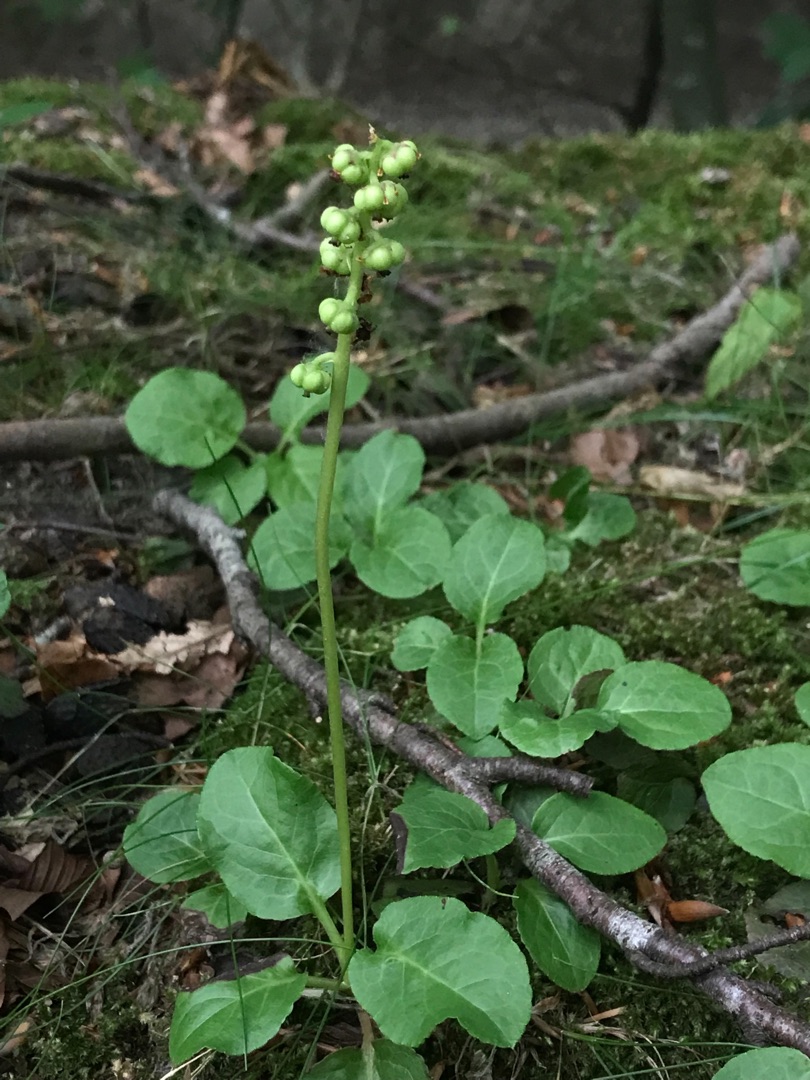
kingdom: Plantae
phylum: Tracheophyta
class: Magnoliopsida
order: Ericales
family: Ericaceae
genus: Pyrola
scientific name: Pyrola minor
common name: Liden vintergrøn
